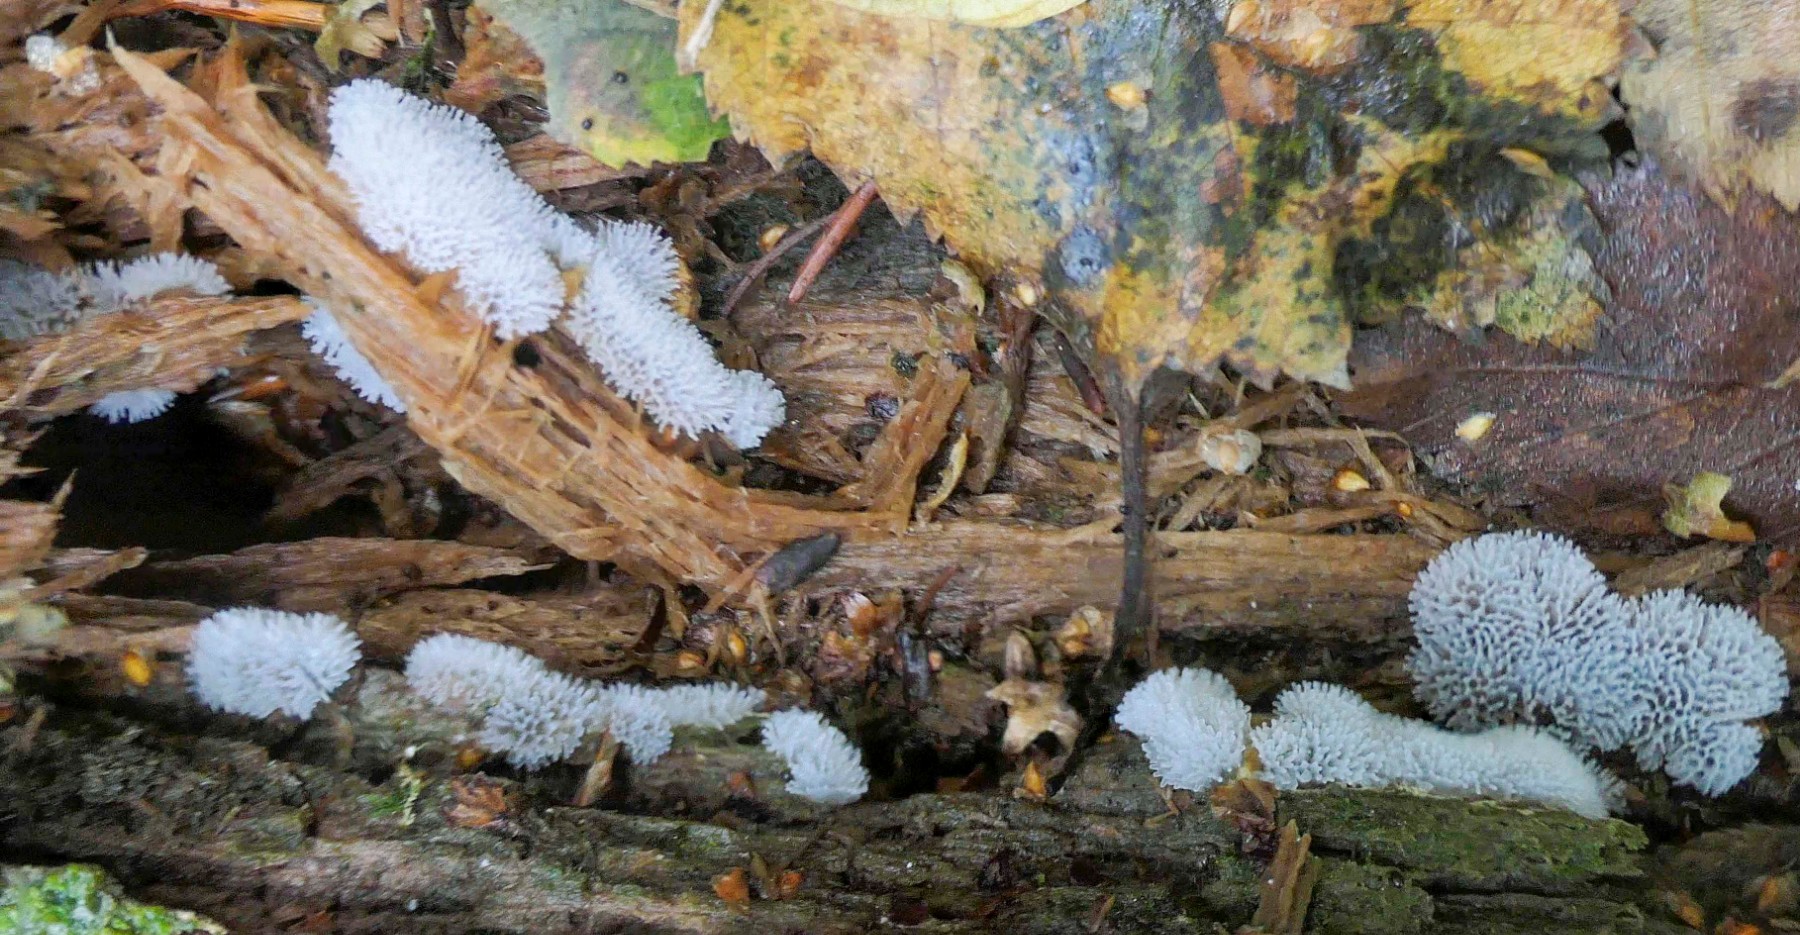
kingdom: Protozoa
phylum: Mycetozoa
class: Protosteliomycetes
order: Ceratiomyxales
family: Ceratiomyxaceae
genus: Ceratiomyxa
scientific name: Ceratiomyxa fruticulosa
